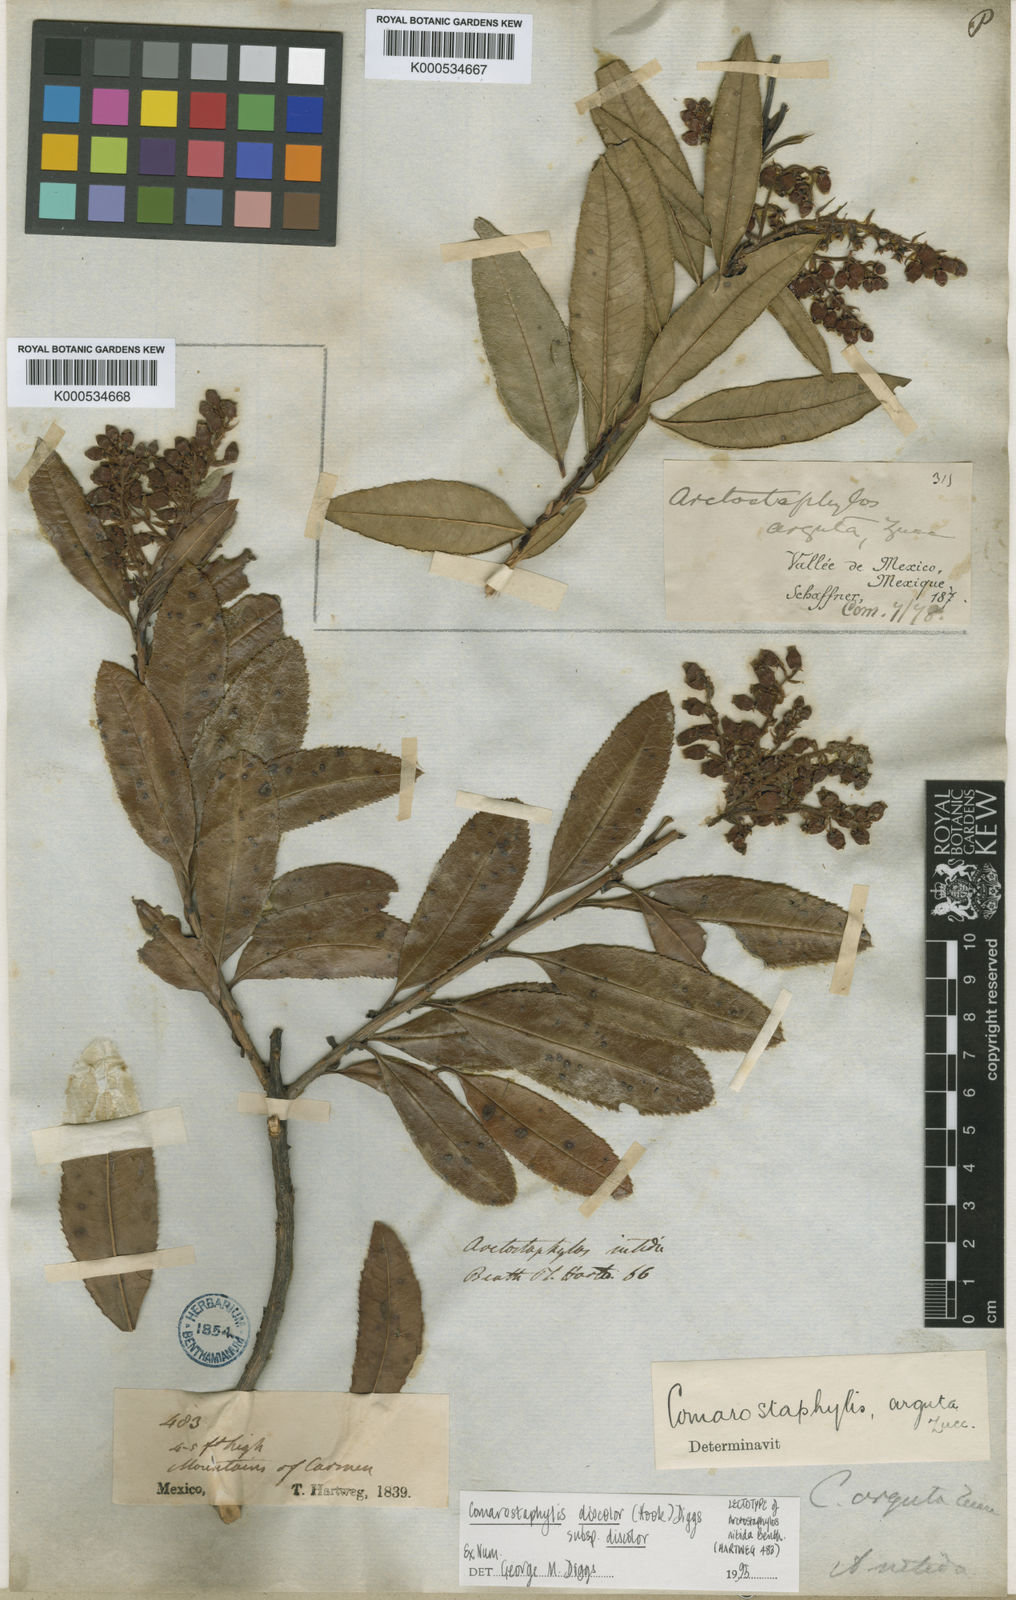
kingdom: Plantae
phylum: Tracheophyta
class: Magnoliopsida
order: Ericales
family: Ericaceae
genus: Comarostaphylis
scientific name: Comarostaphylis discolor
